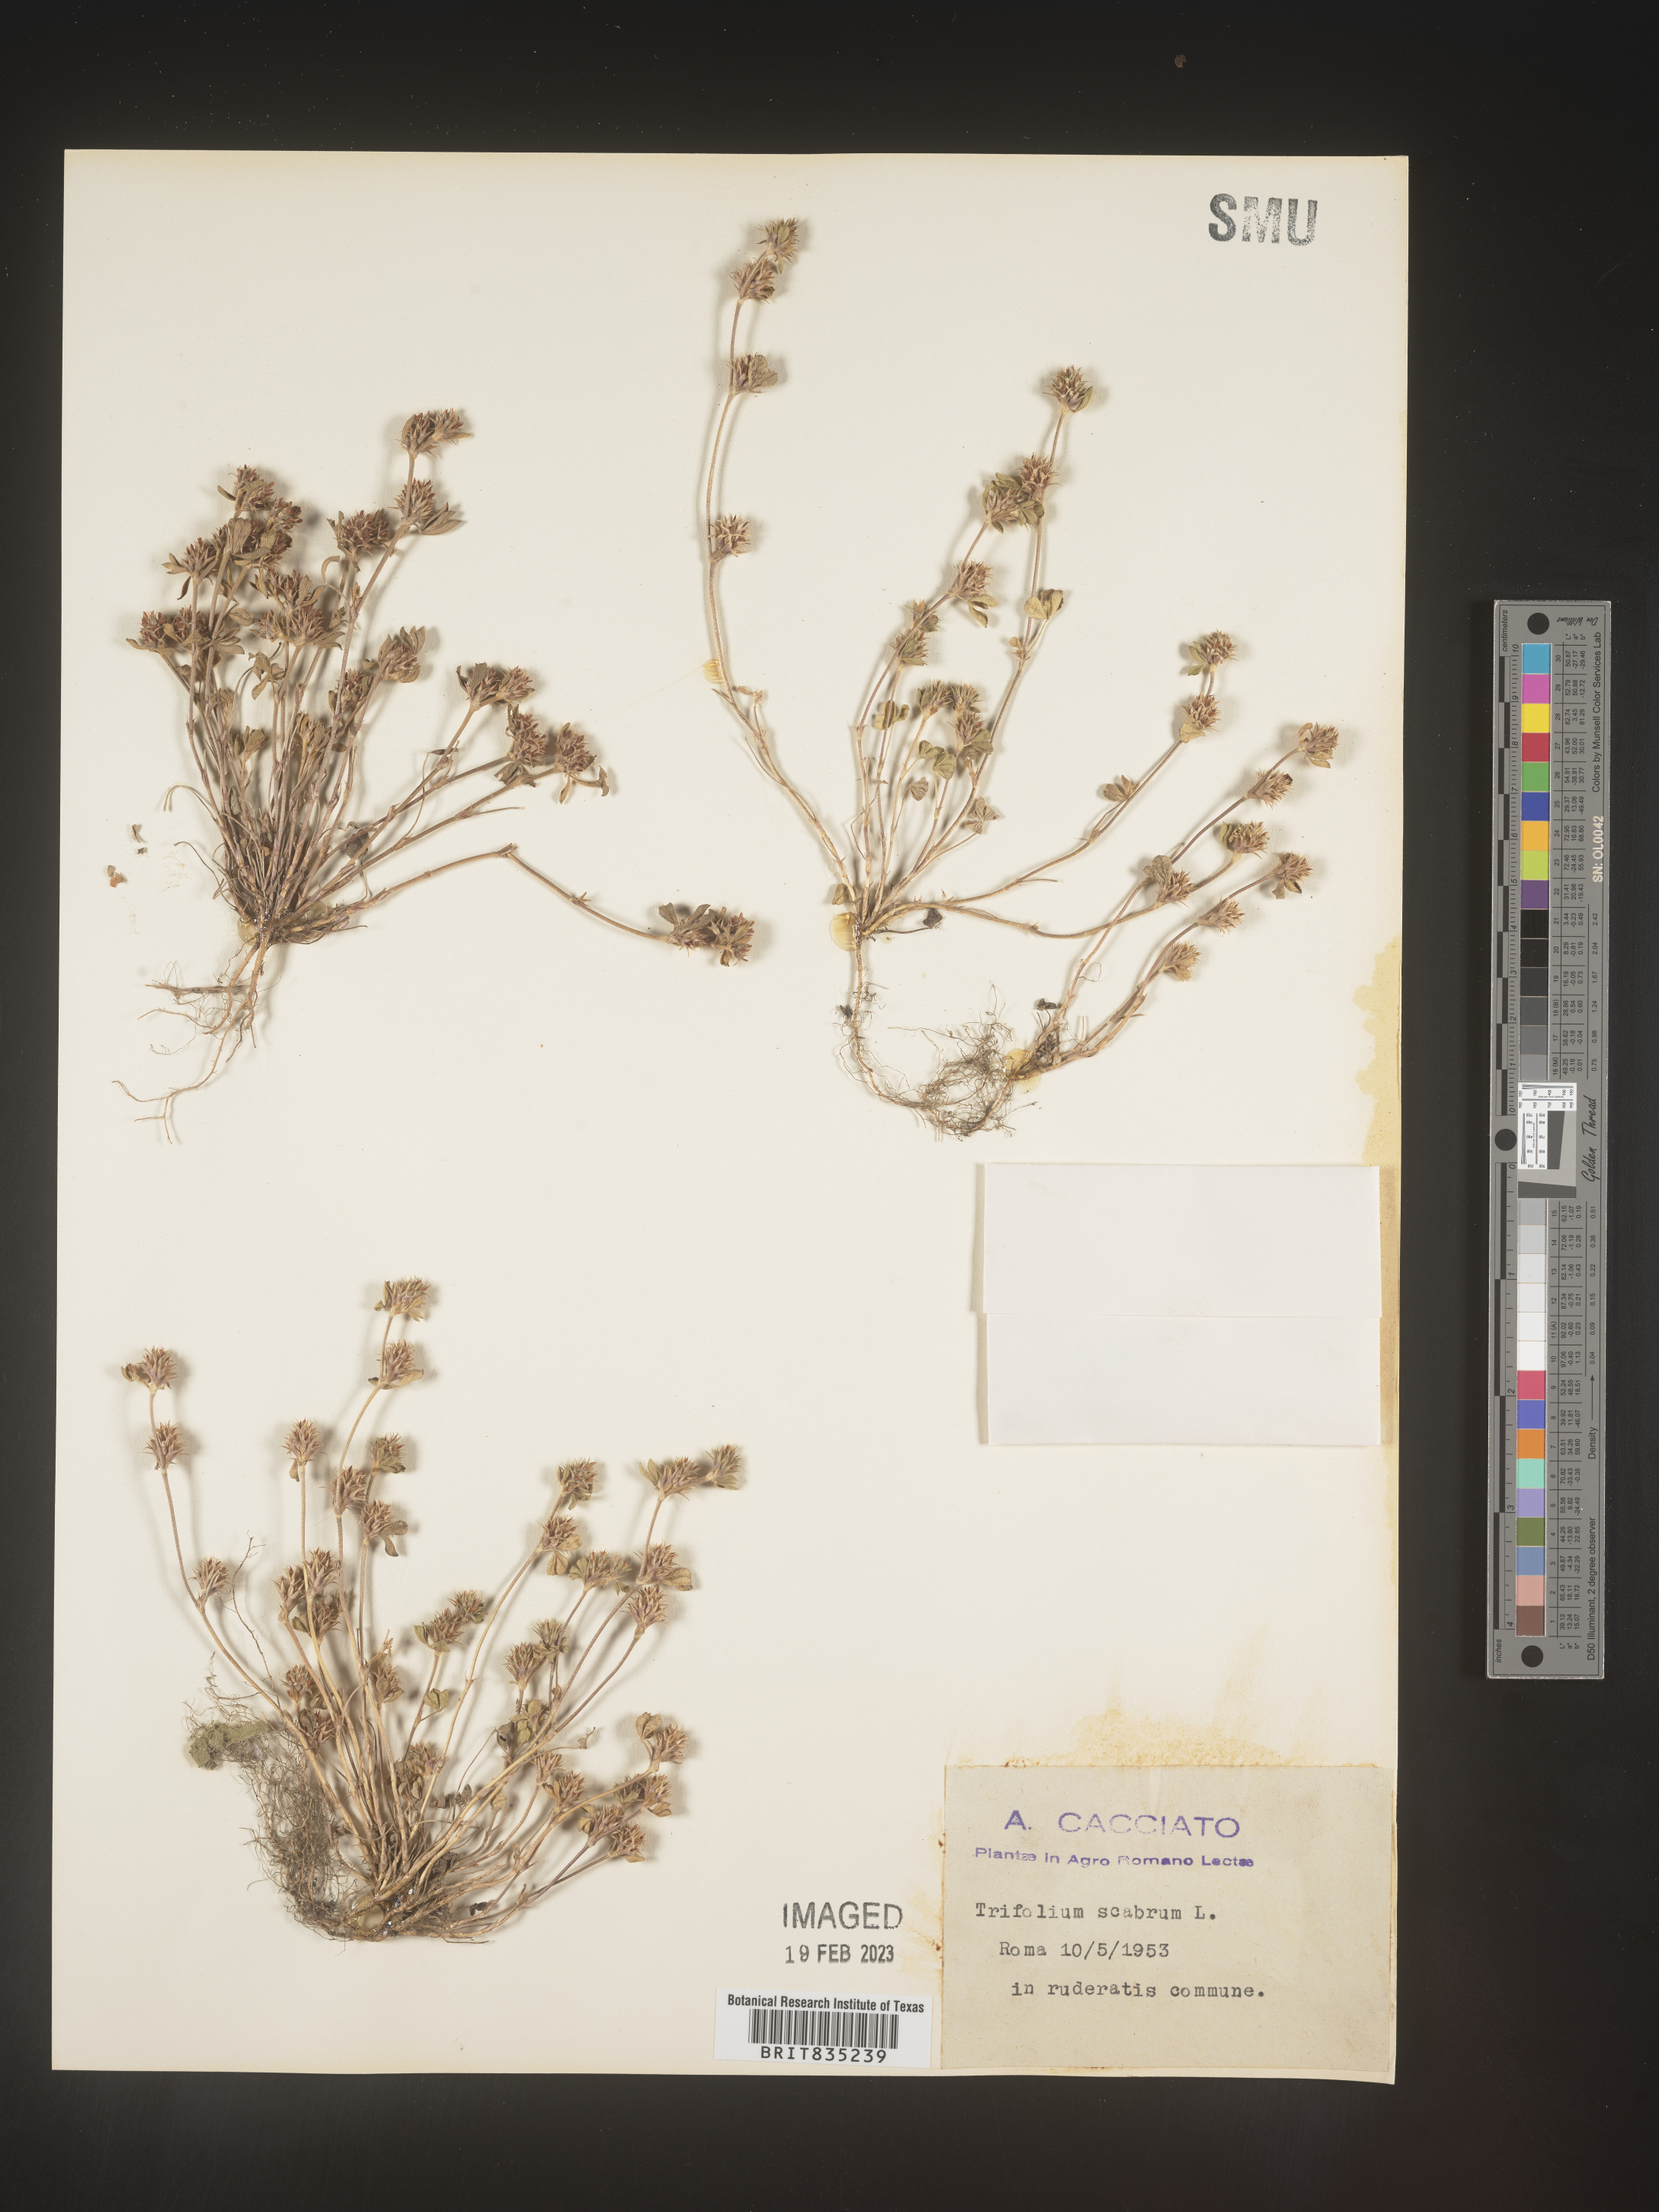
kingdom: Plantae
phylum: Tracheophyta
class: Magnoliopsida
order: Fabales
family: Fabaceae
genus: Trifolium
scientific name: Trifolium
